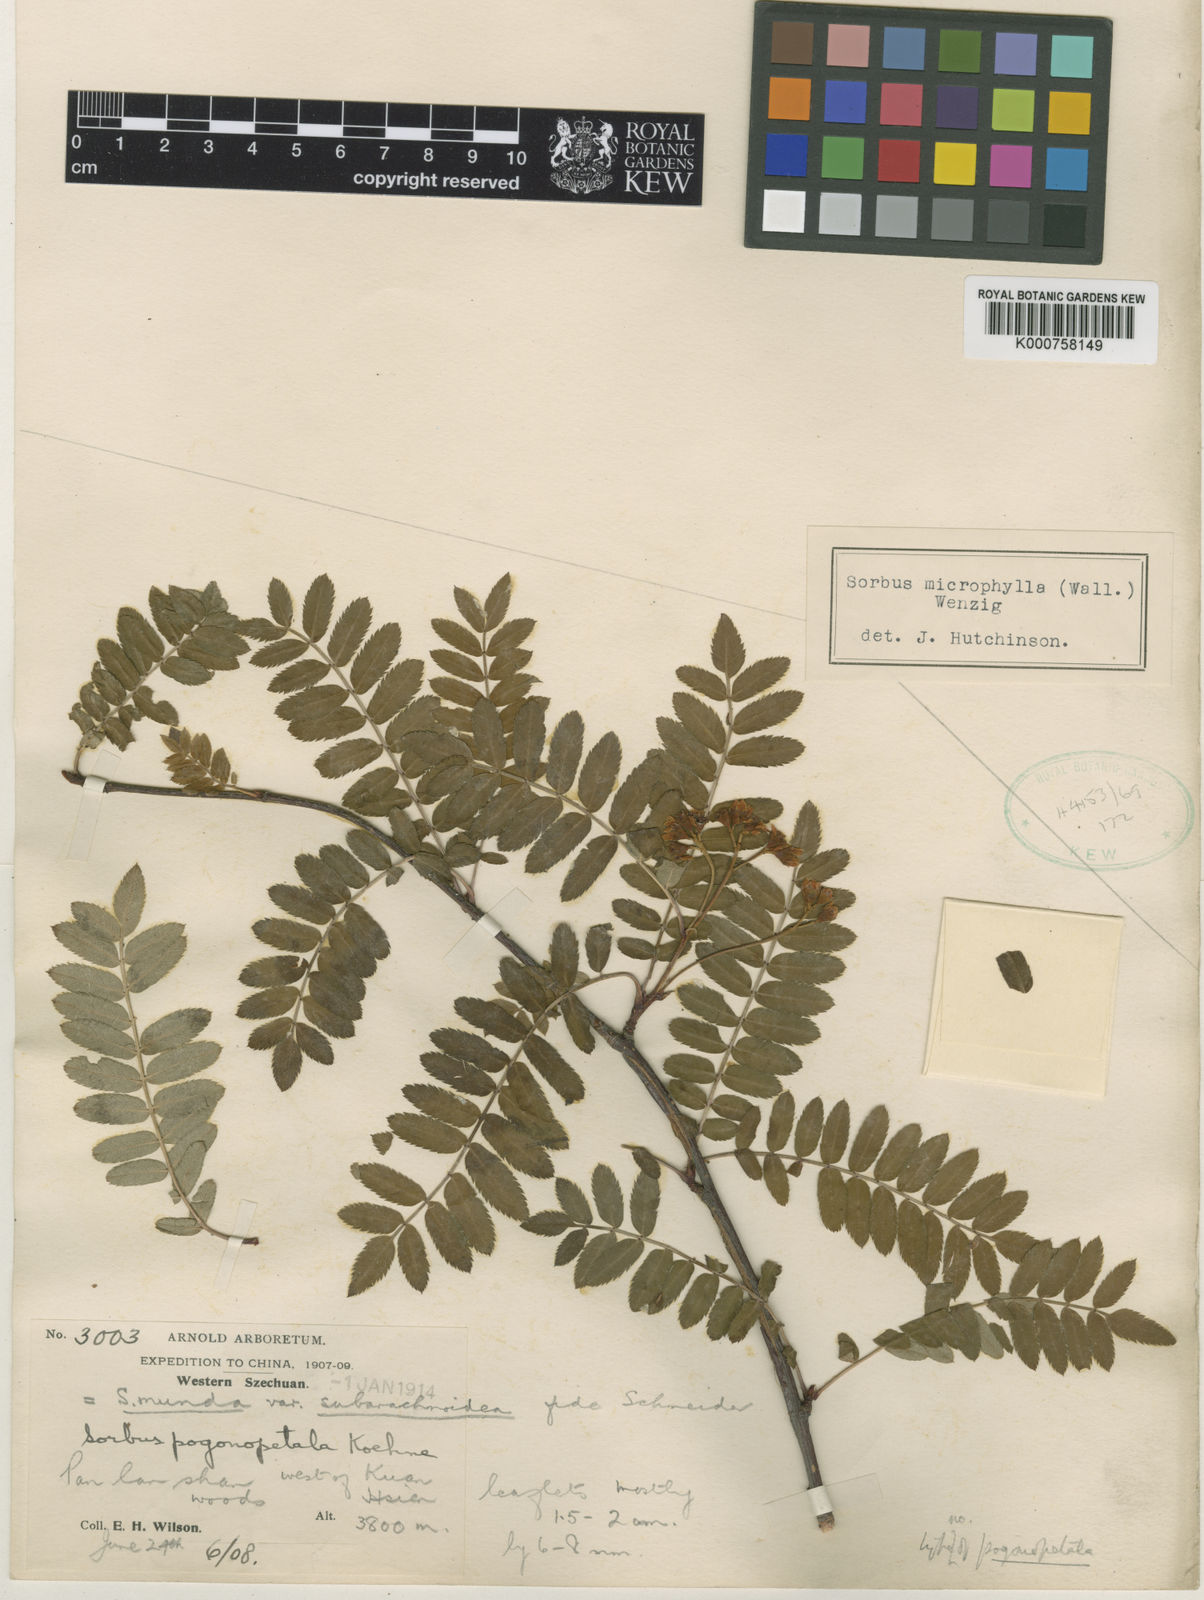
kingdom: Plantae
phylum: Tracheophyta
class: Magnoliopsida
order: Rosales
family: Rosaceae
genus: Sorbus
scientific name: Sorbus prattii
